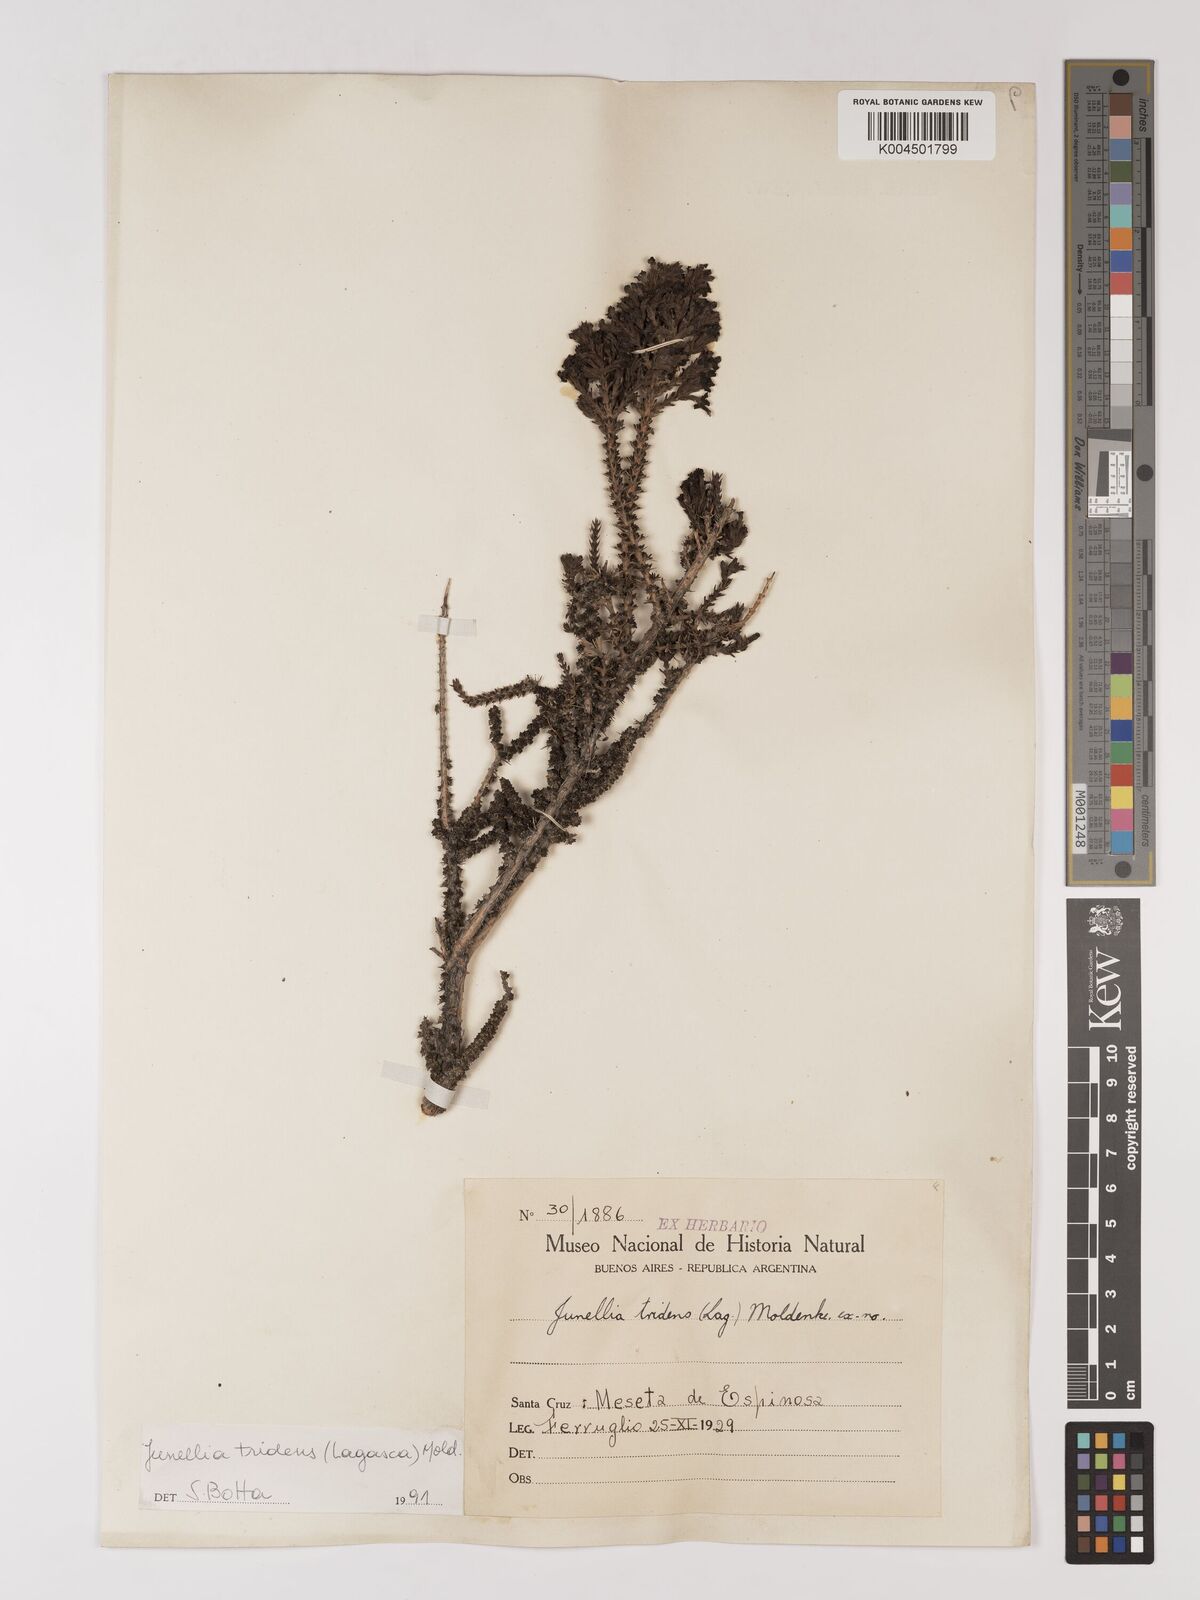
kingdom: Plantae
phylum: Tracheophyta
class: Magnoliopsida
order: Lamiales
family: Verbenaceae
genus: Mulguraea
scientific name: Mulguraea tridens
